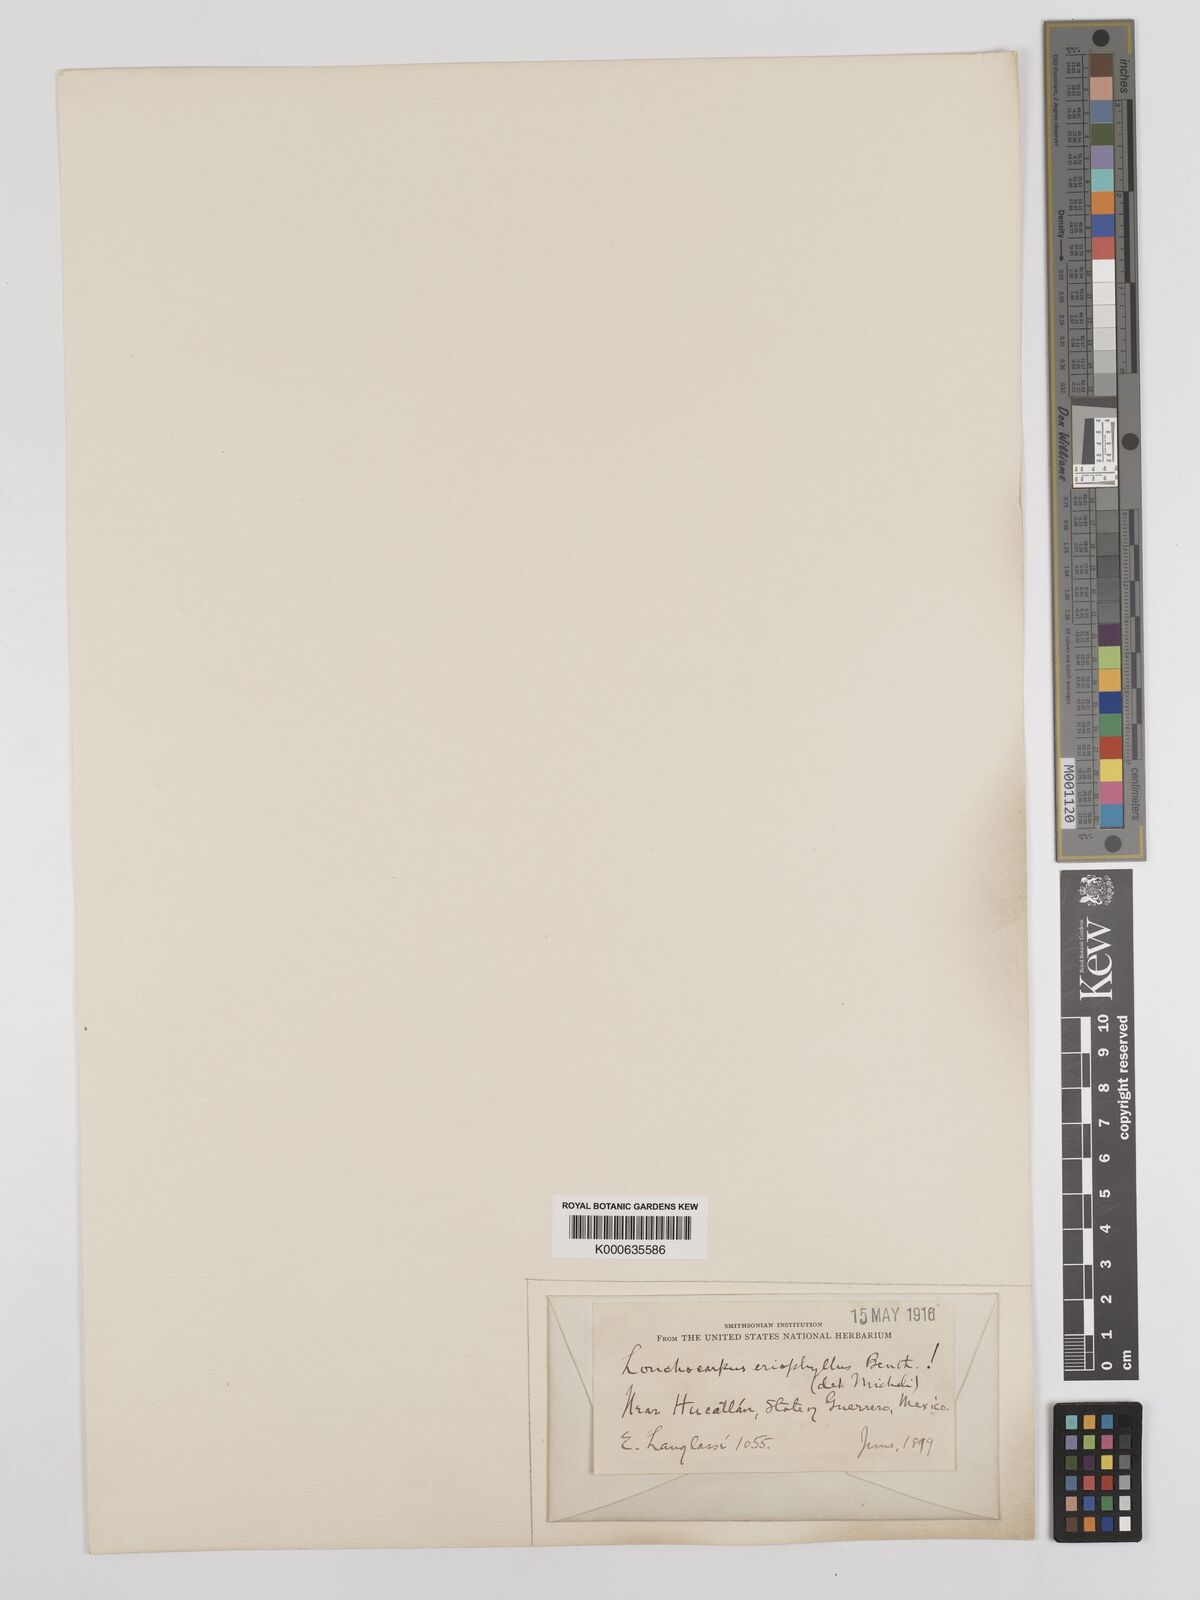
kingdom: Plantae
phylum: Tracheophyta
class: Magnoliopsida
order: Fabales
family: Fabaceae
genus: Lonchocarpus
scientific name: Lonchocarpus eriophyllus
